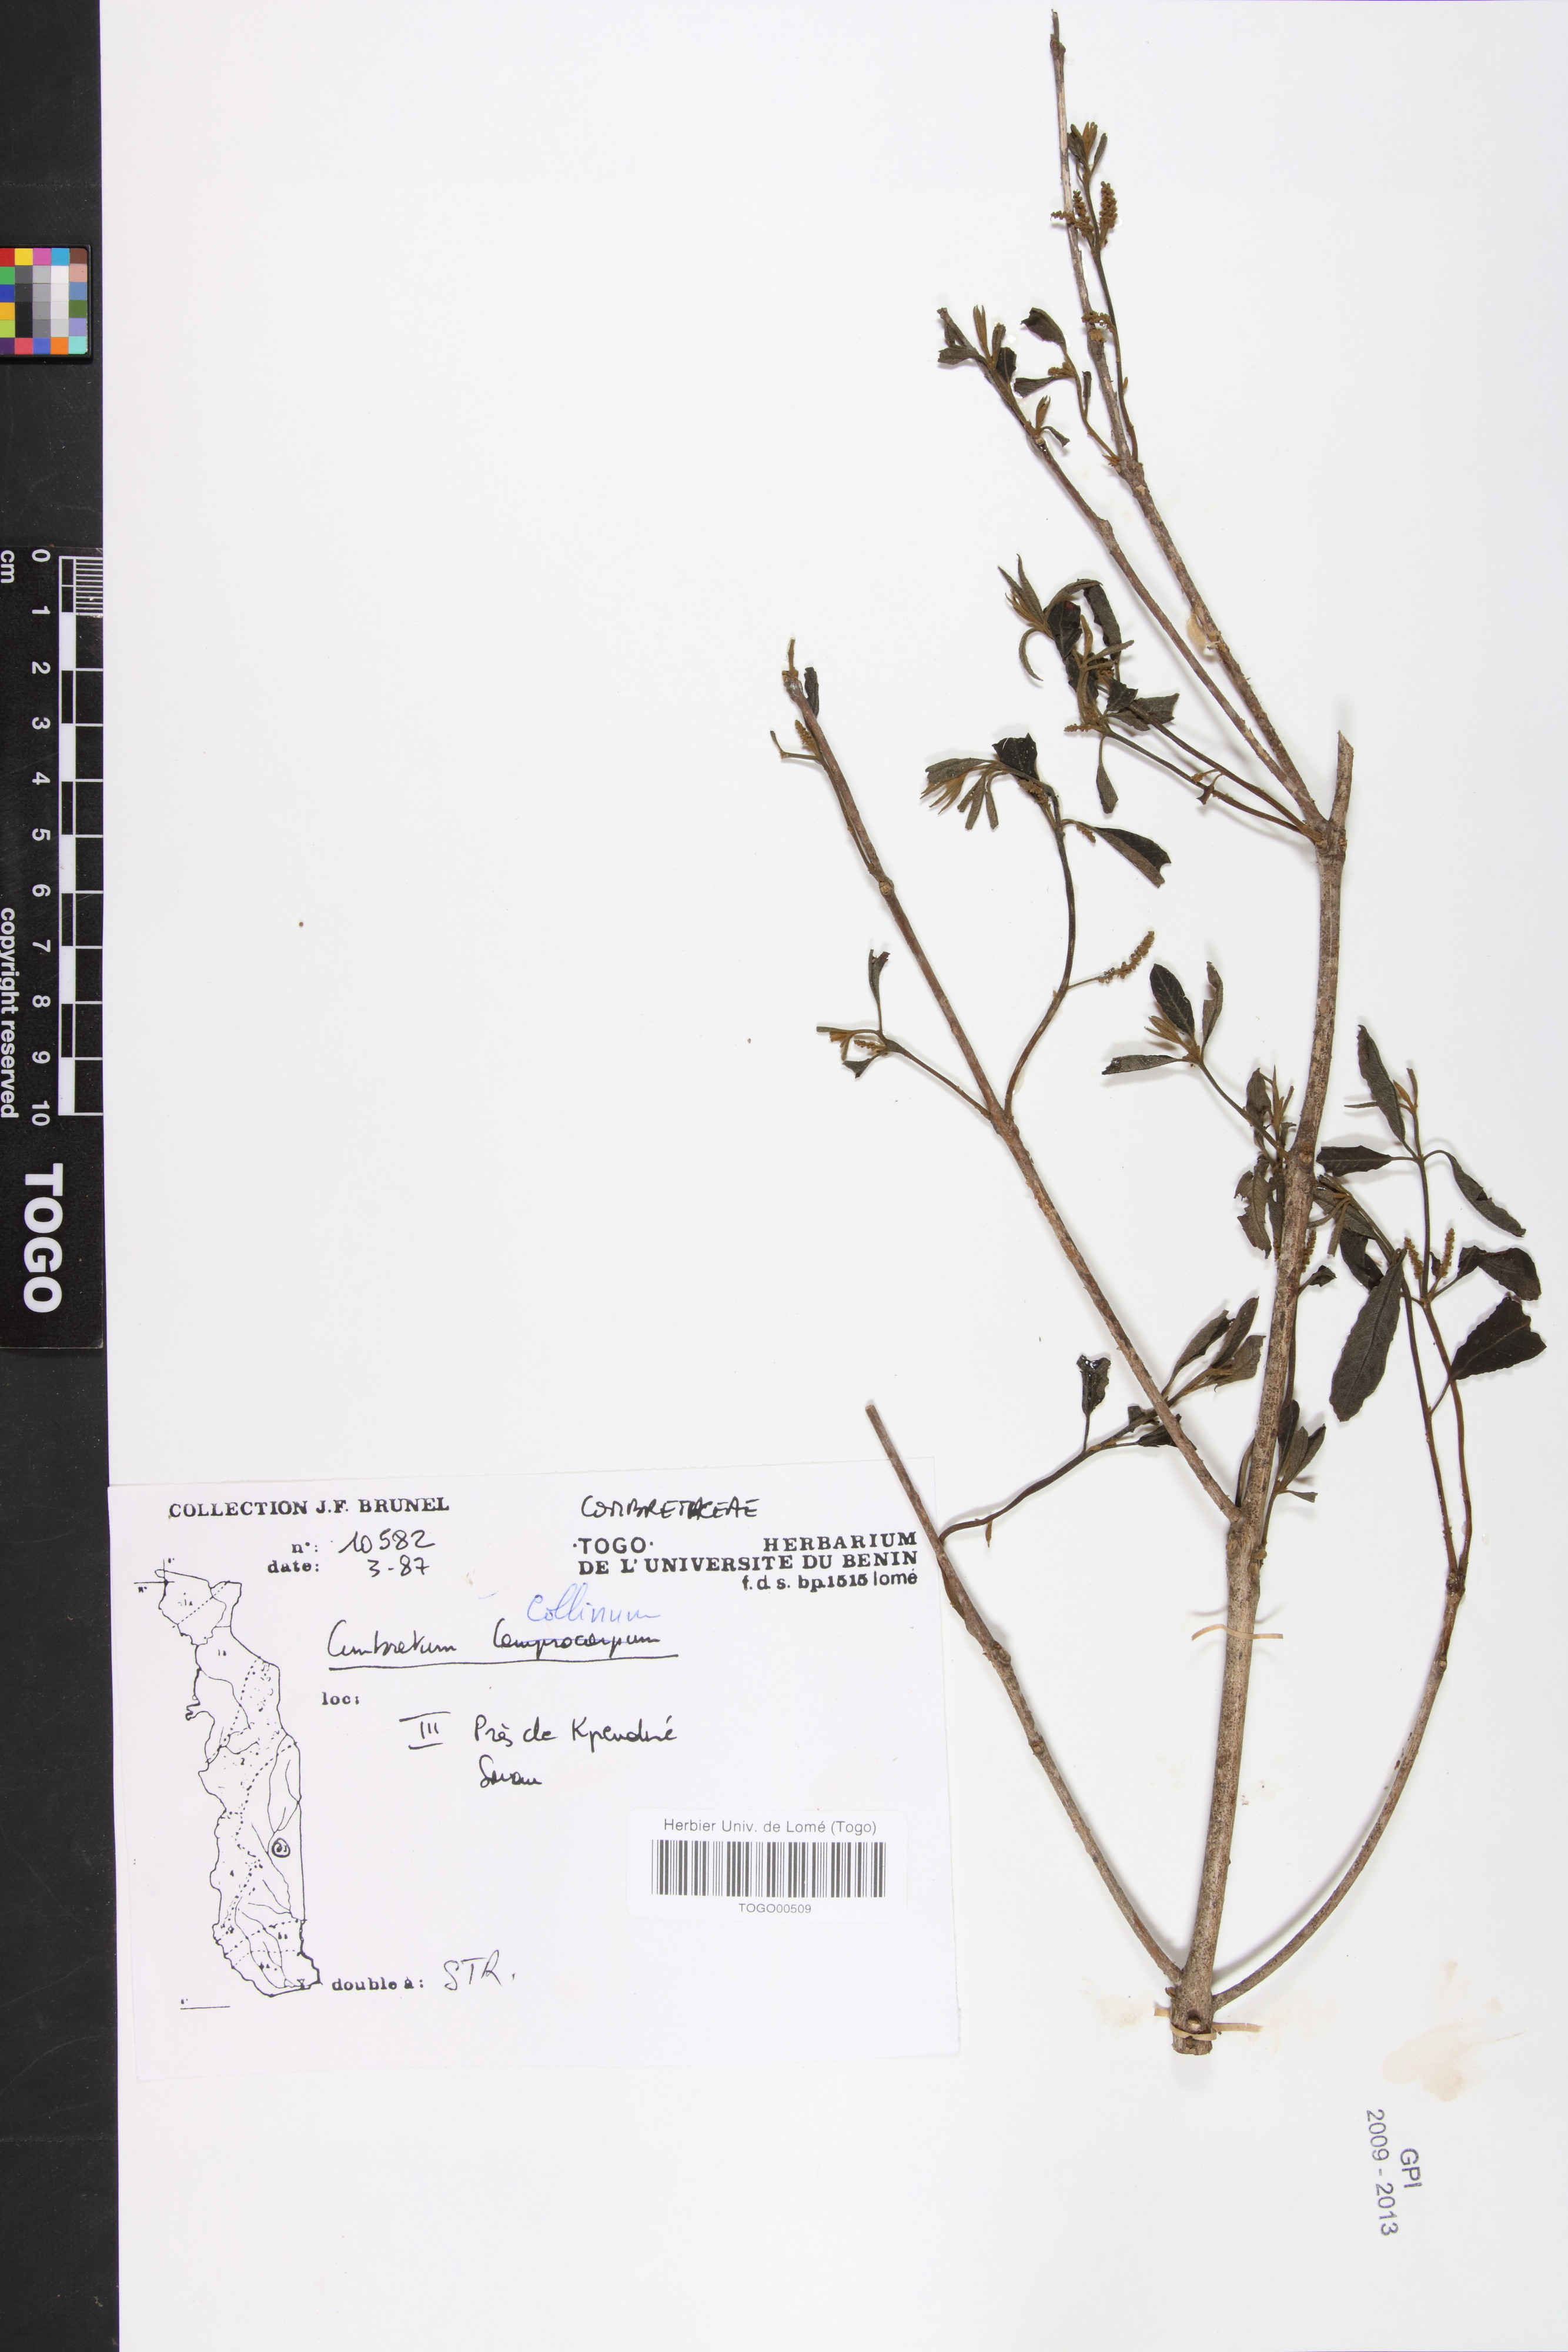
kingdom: Plantae
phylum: Tracheophyta
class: Magnoliopsida
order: Myrtales
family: Combretaceae
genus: Combretum
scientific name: Combretum collinum
